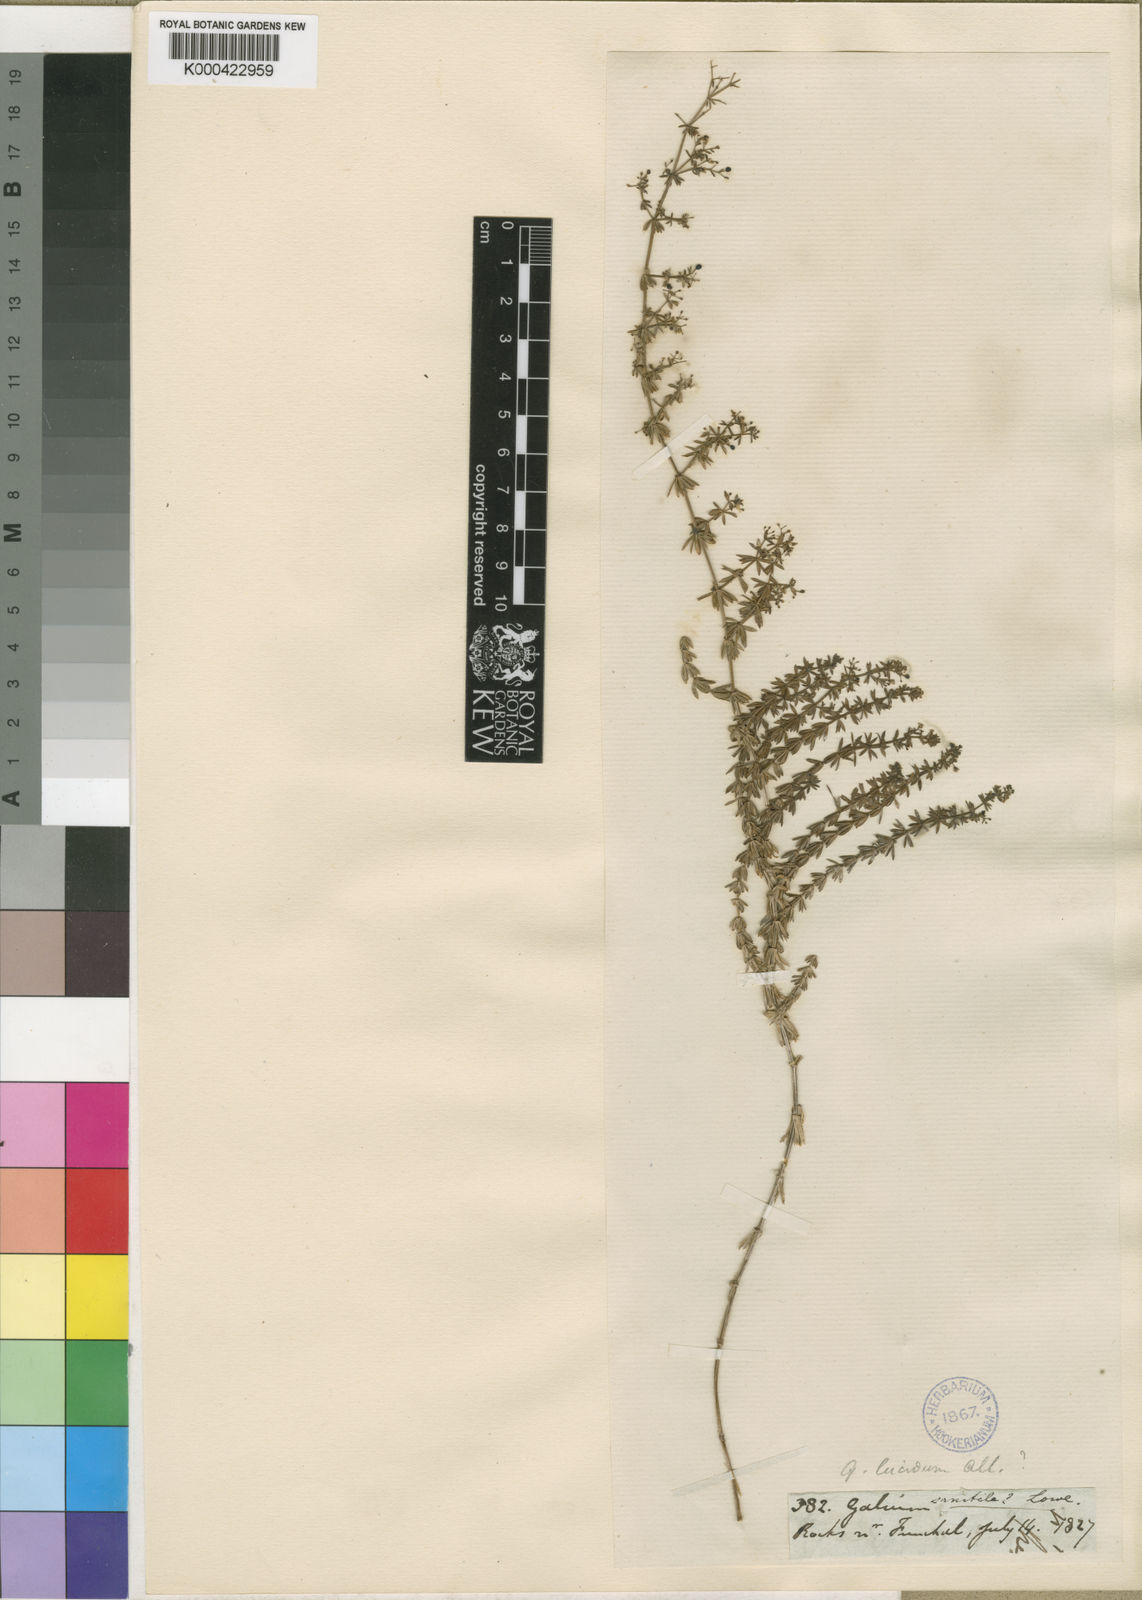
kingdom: Plantae
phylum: Tracheophyta
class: Magnoliopsida
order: Gentianales
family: Rubiaceae
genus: Galium
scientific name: Galium productum
